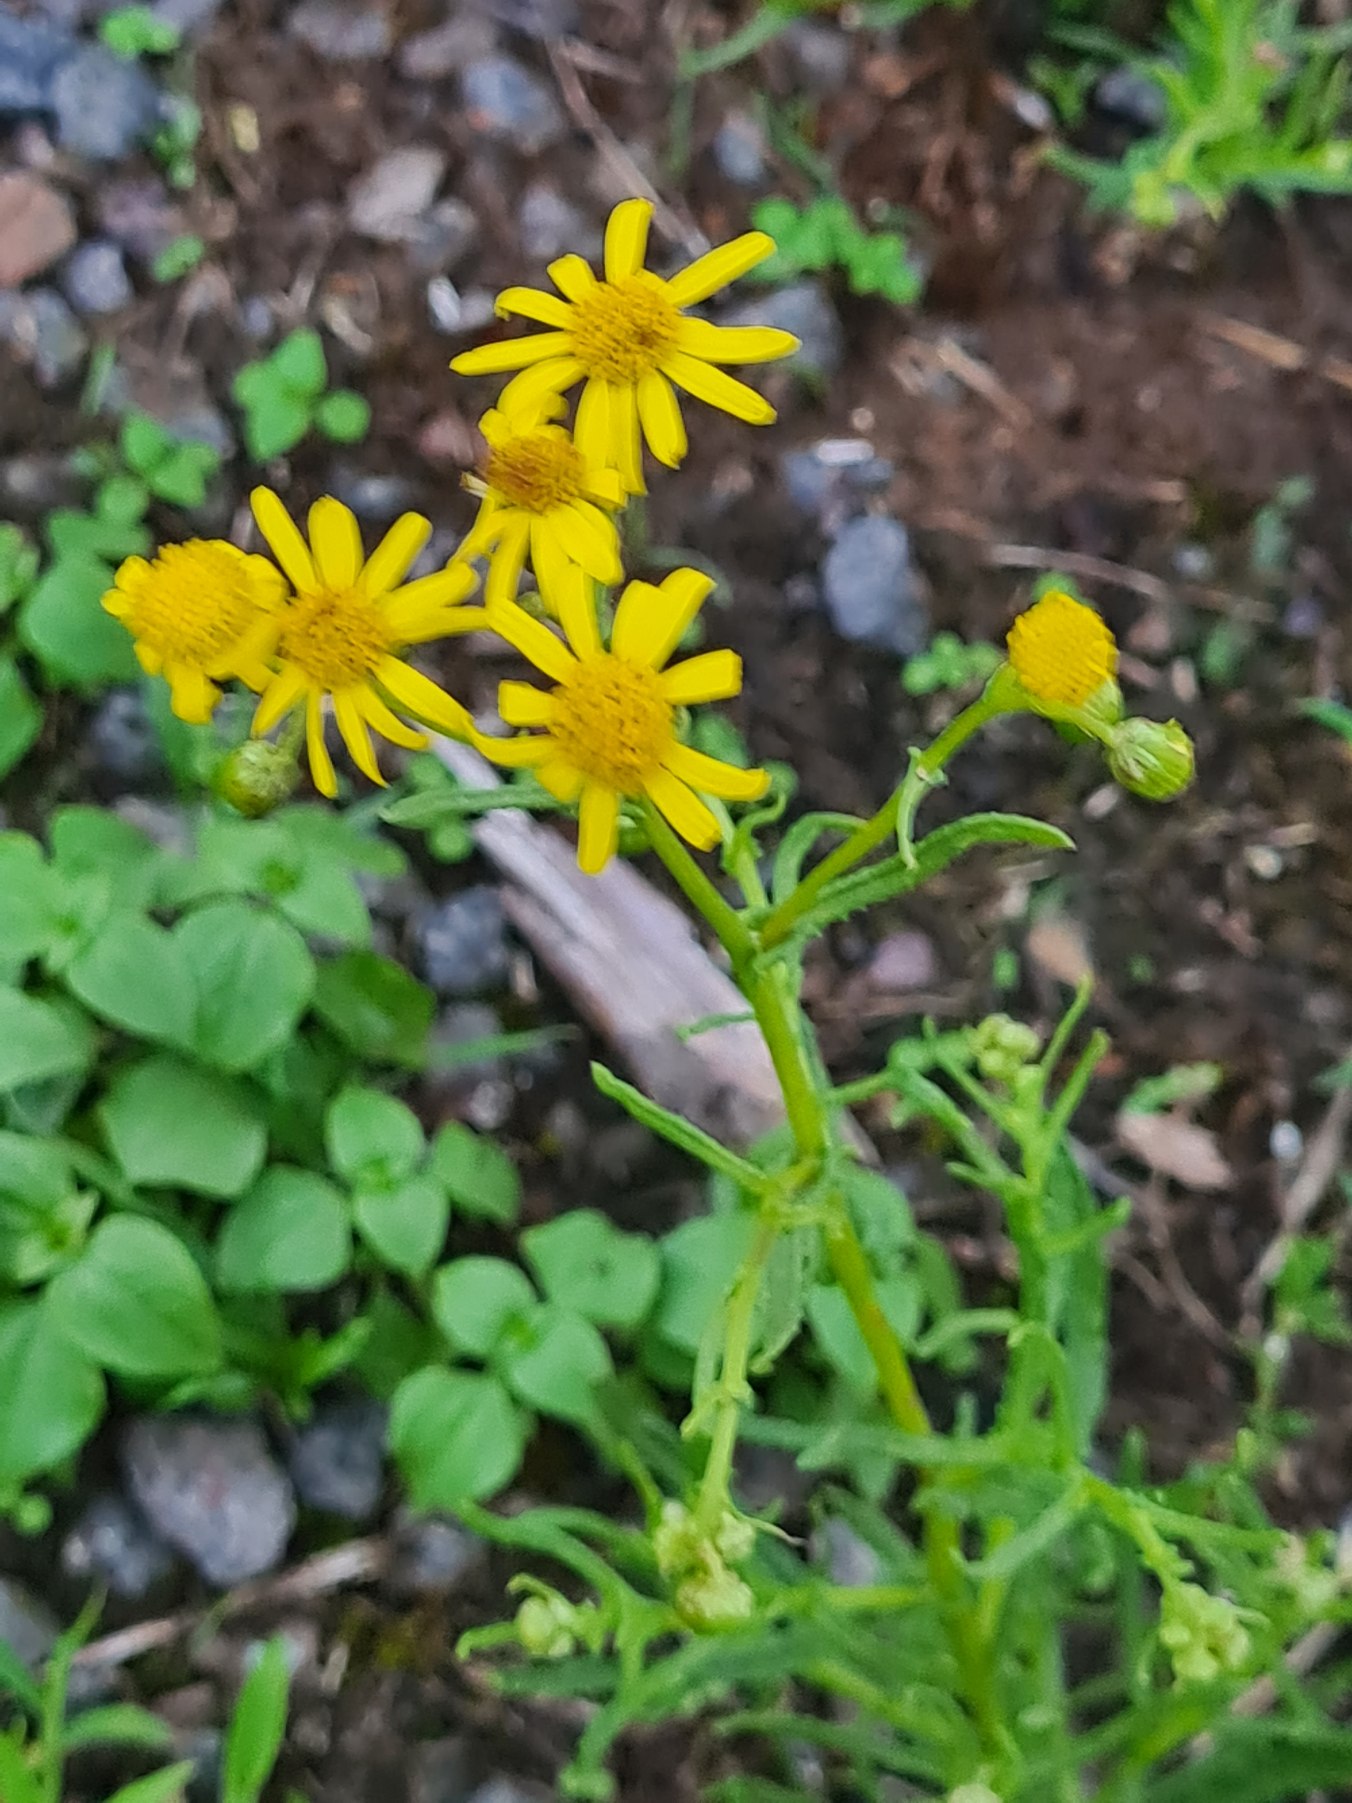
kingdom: Plantae
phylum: Tracheophyta
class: Magnoliopsida
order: Asterales
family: Asteraceae
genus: Senecio
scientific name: Senecio inaequidens
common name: Smalbladet brandbæger
